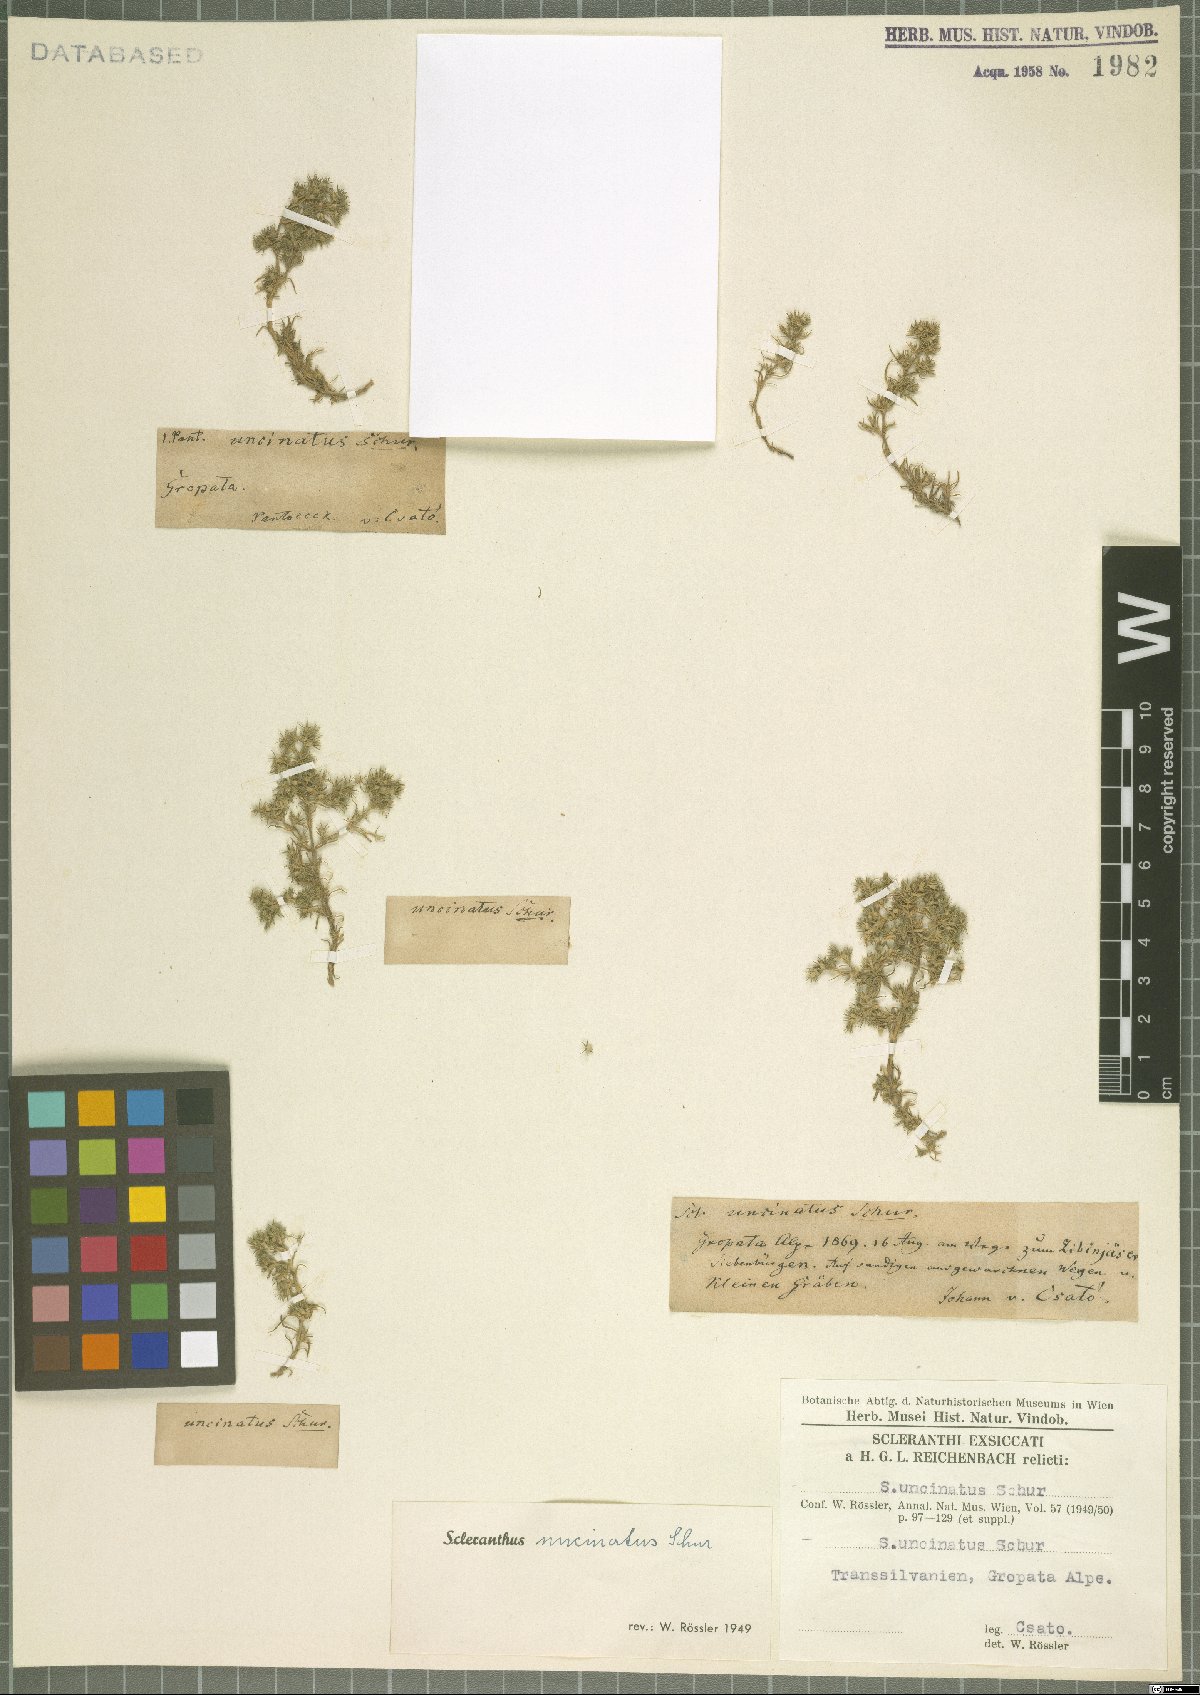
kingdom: Plantae
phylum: Tracheophyta
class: Magnoliopsida
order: Caryophyllales
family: Caryophyllaceae
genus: Scleranthus
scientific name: Scleranthus uncinatus
